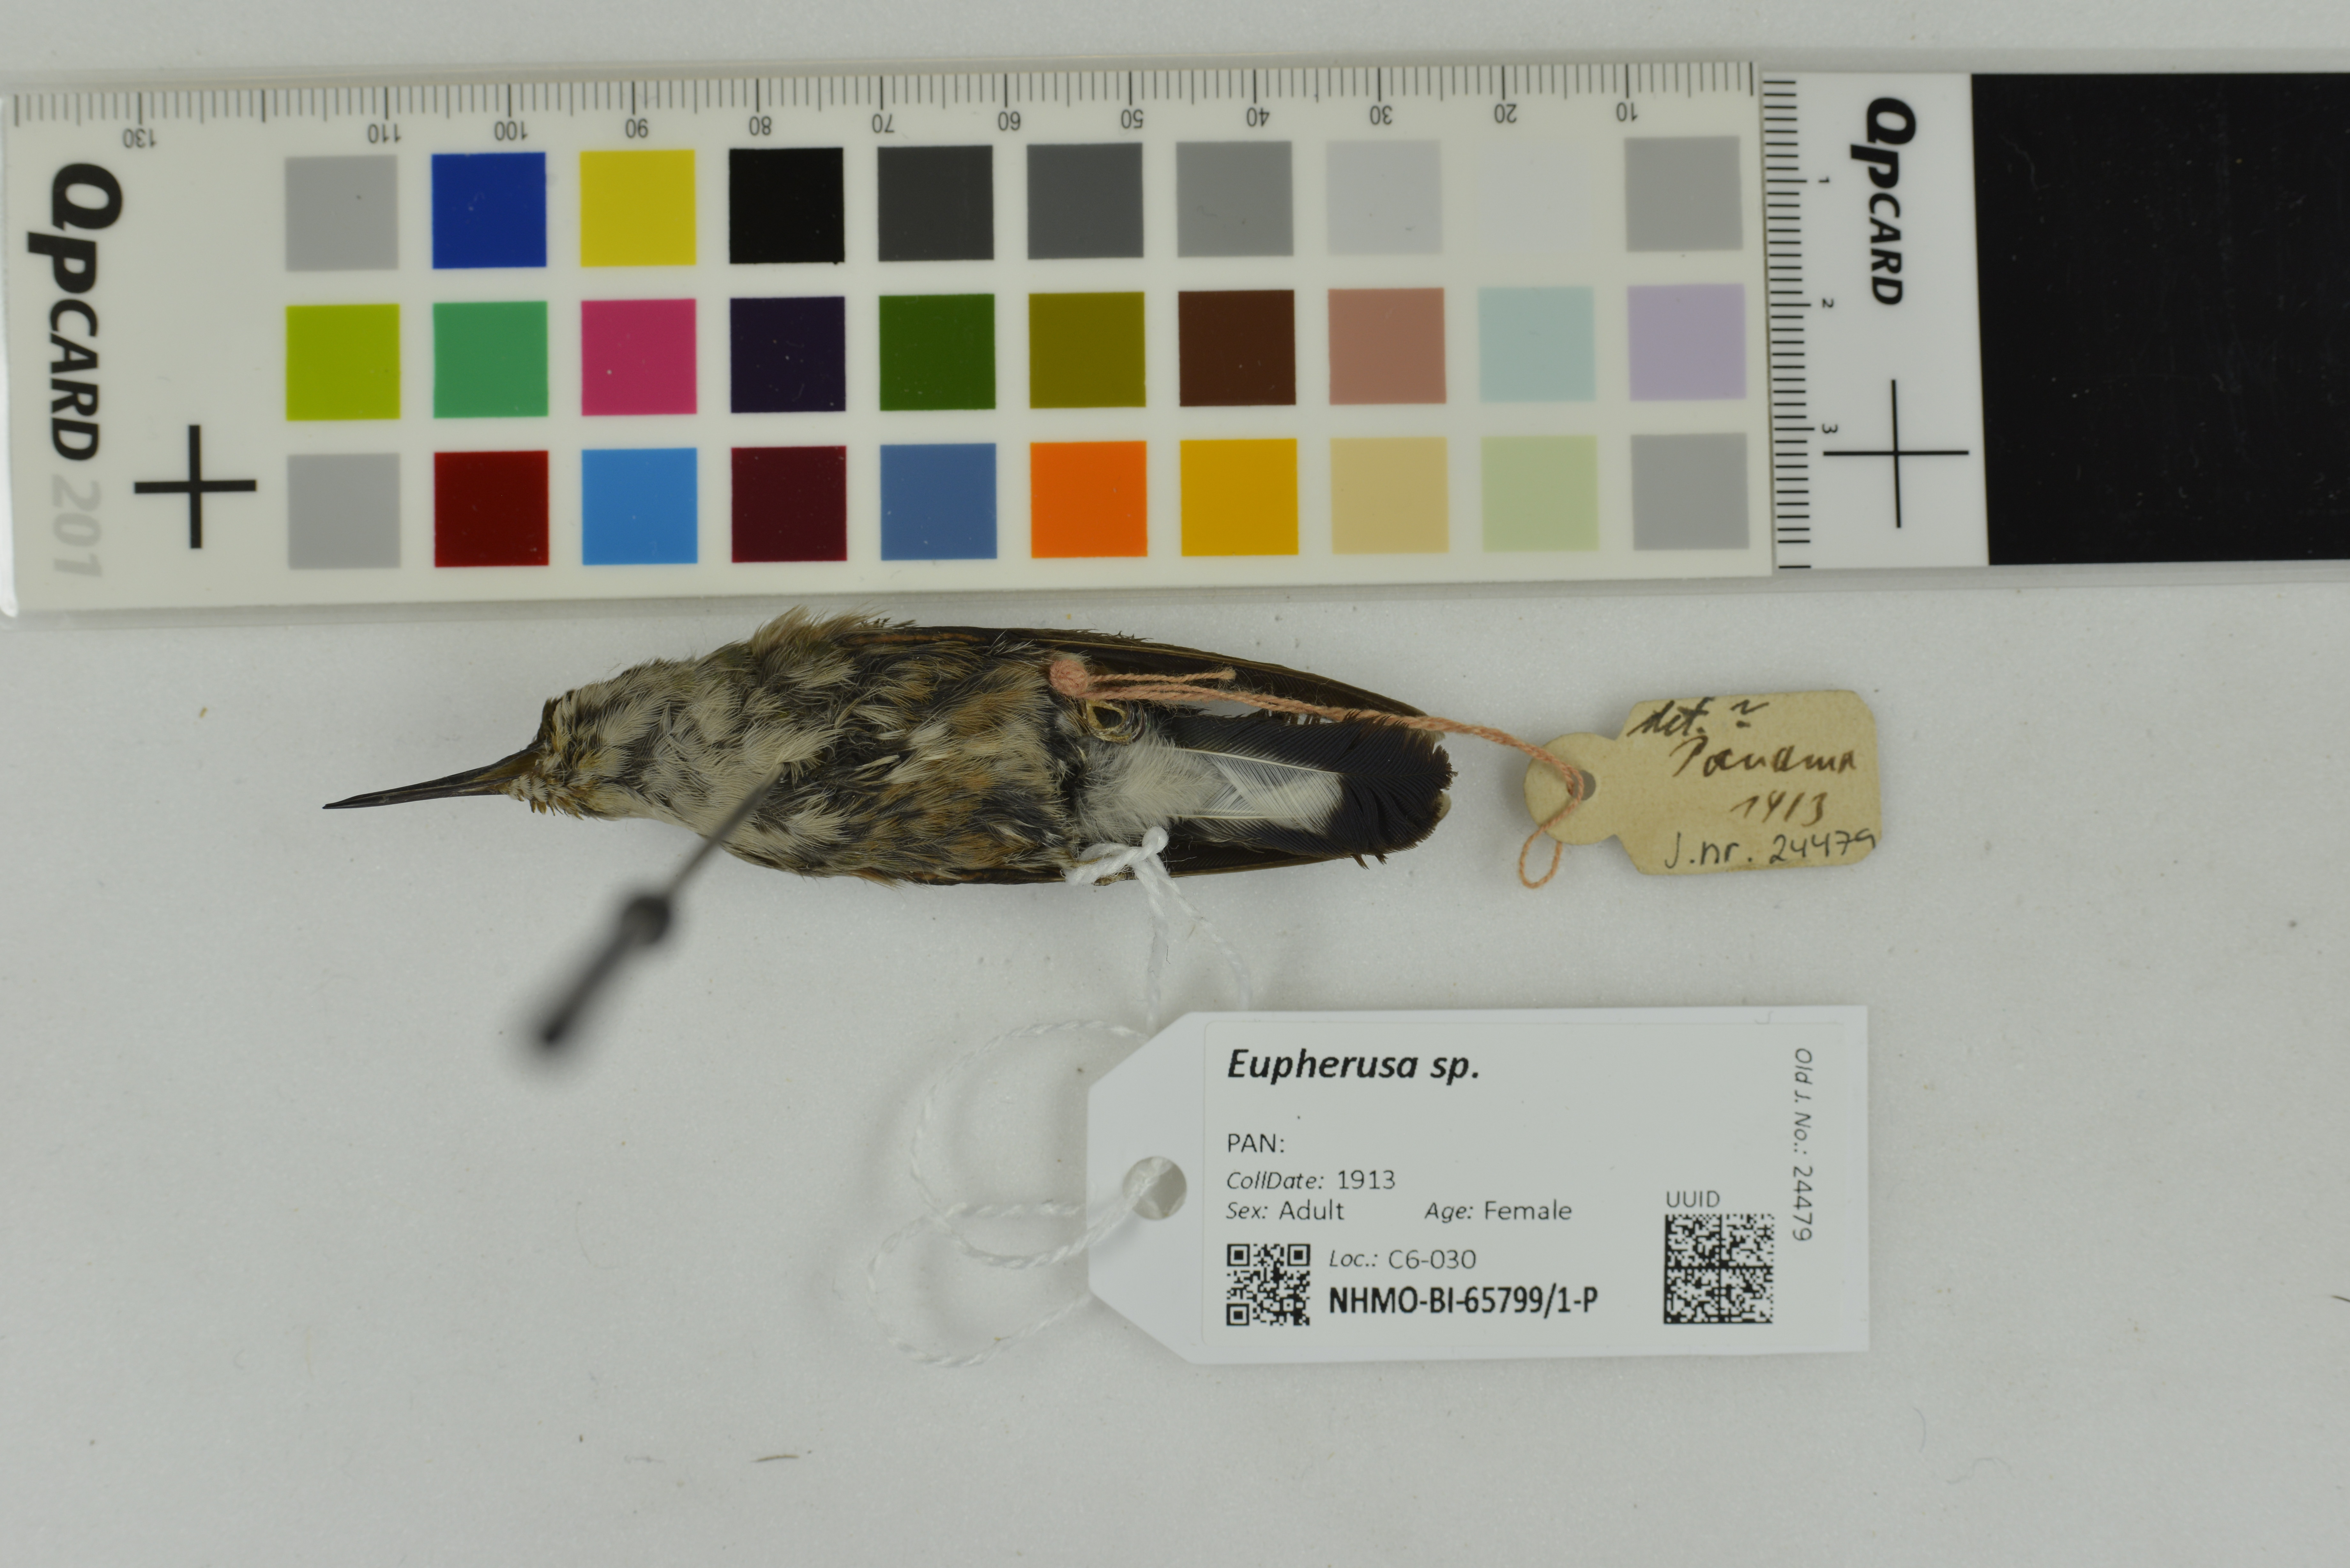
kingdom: Animalia
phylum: Chordata
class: Aves
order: Apodiformes
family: Trochilidae
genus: Eupherusa
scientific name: Eupherusa
